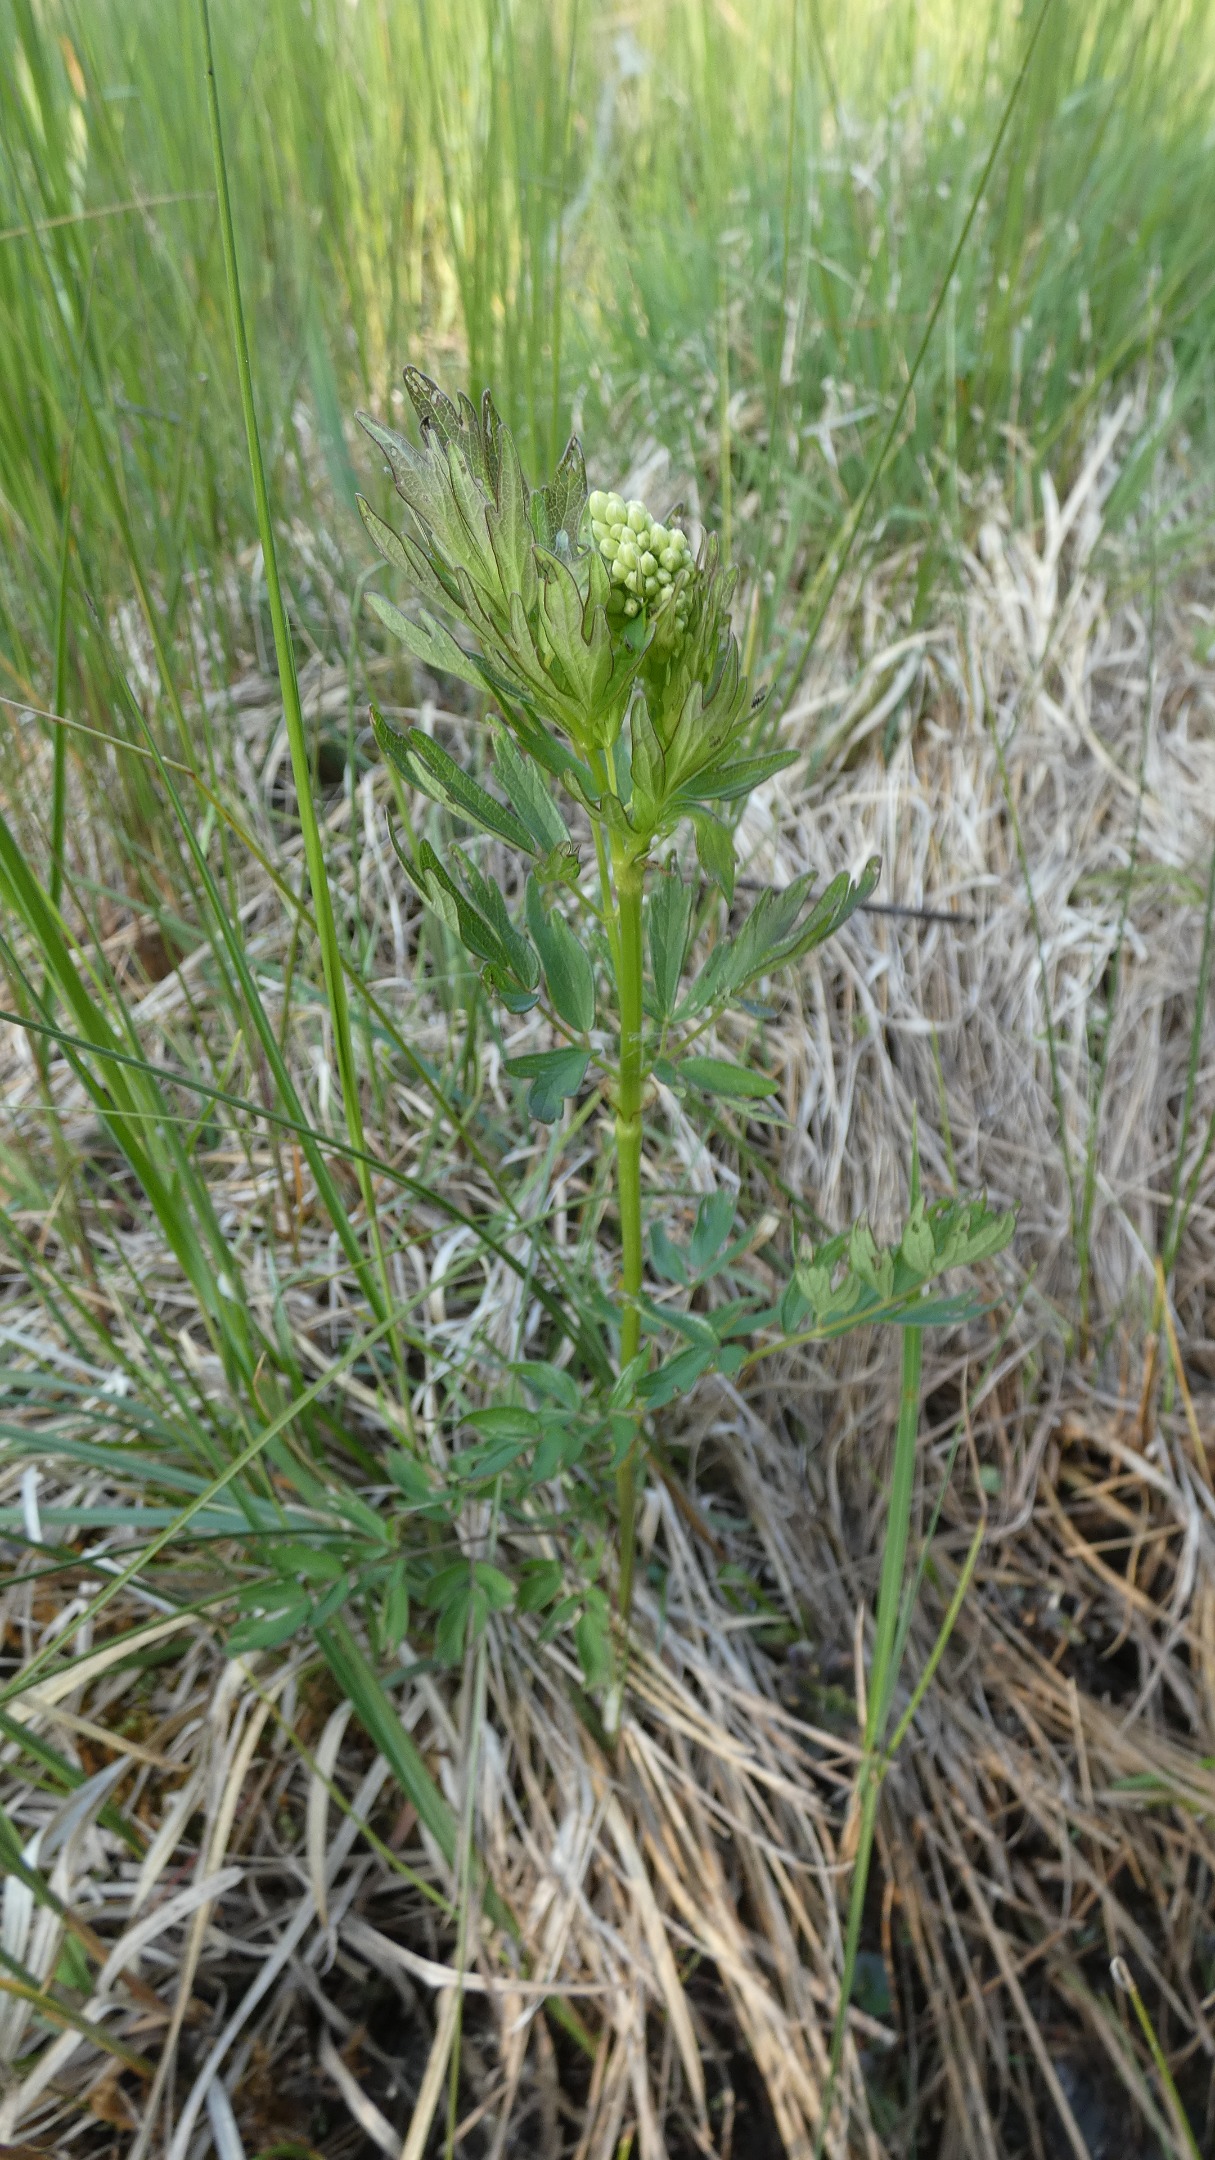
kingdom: Plantae
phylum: Tracheophyta
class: Magnoliopsida
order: Ranunculales
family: Ranunculaceae
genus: Thalictrum
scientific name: Thalictrum flavum
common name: Gul frøstjerne
